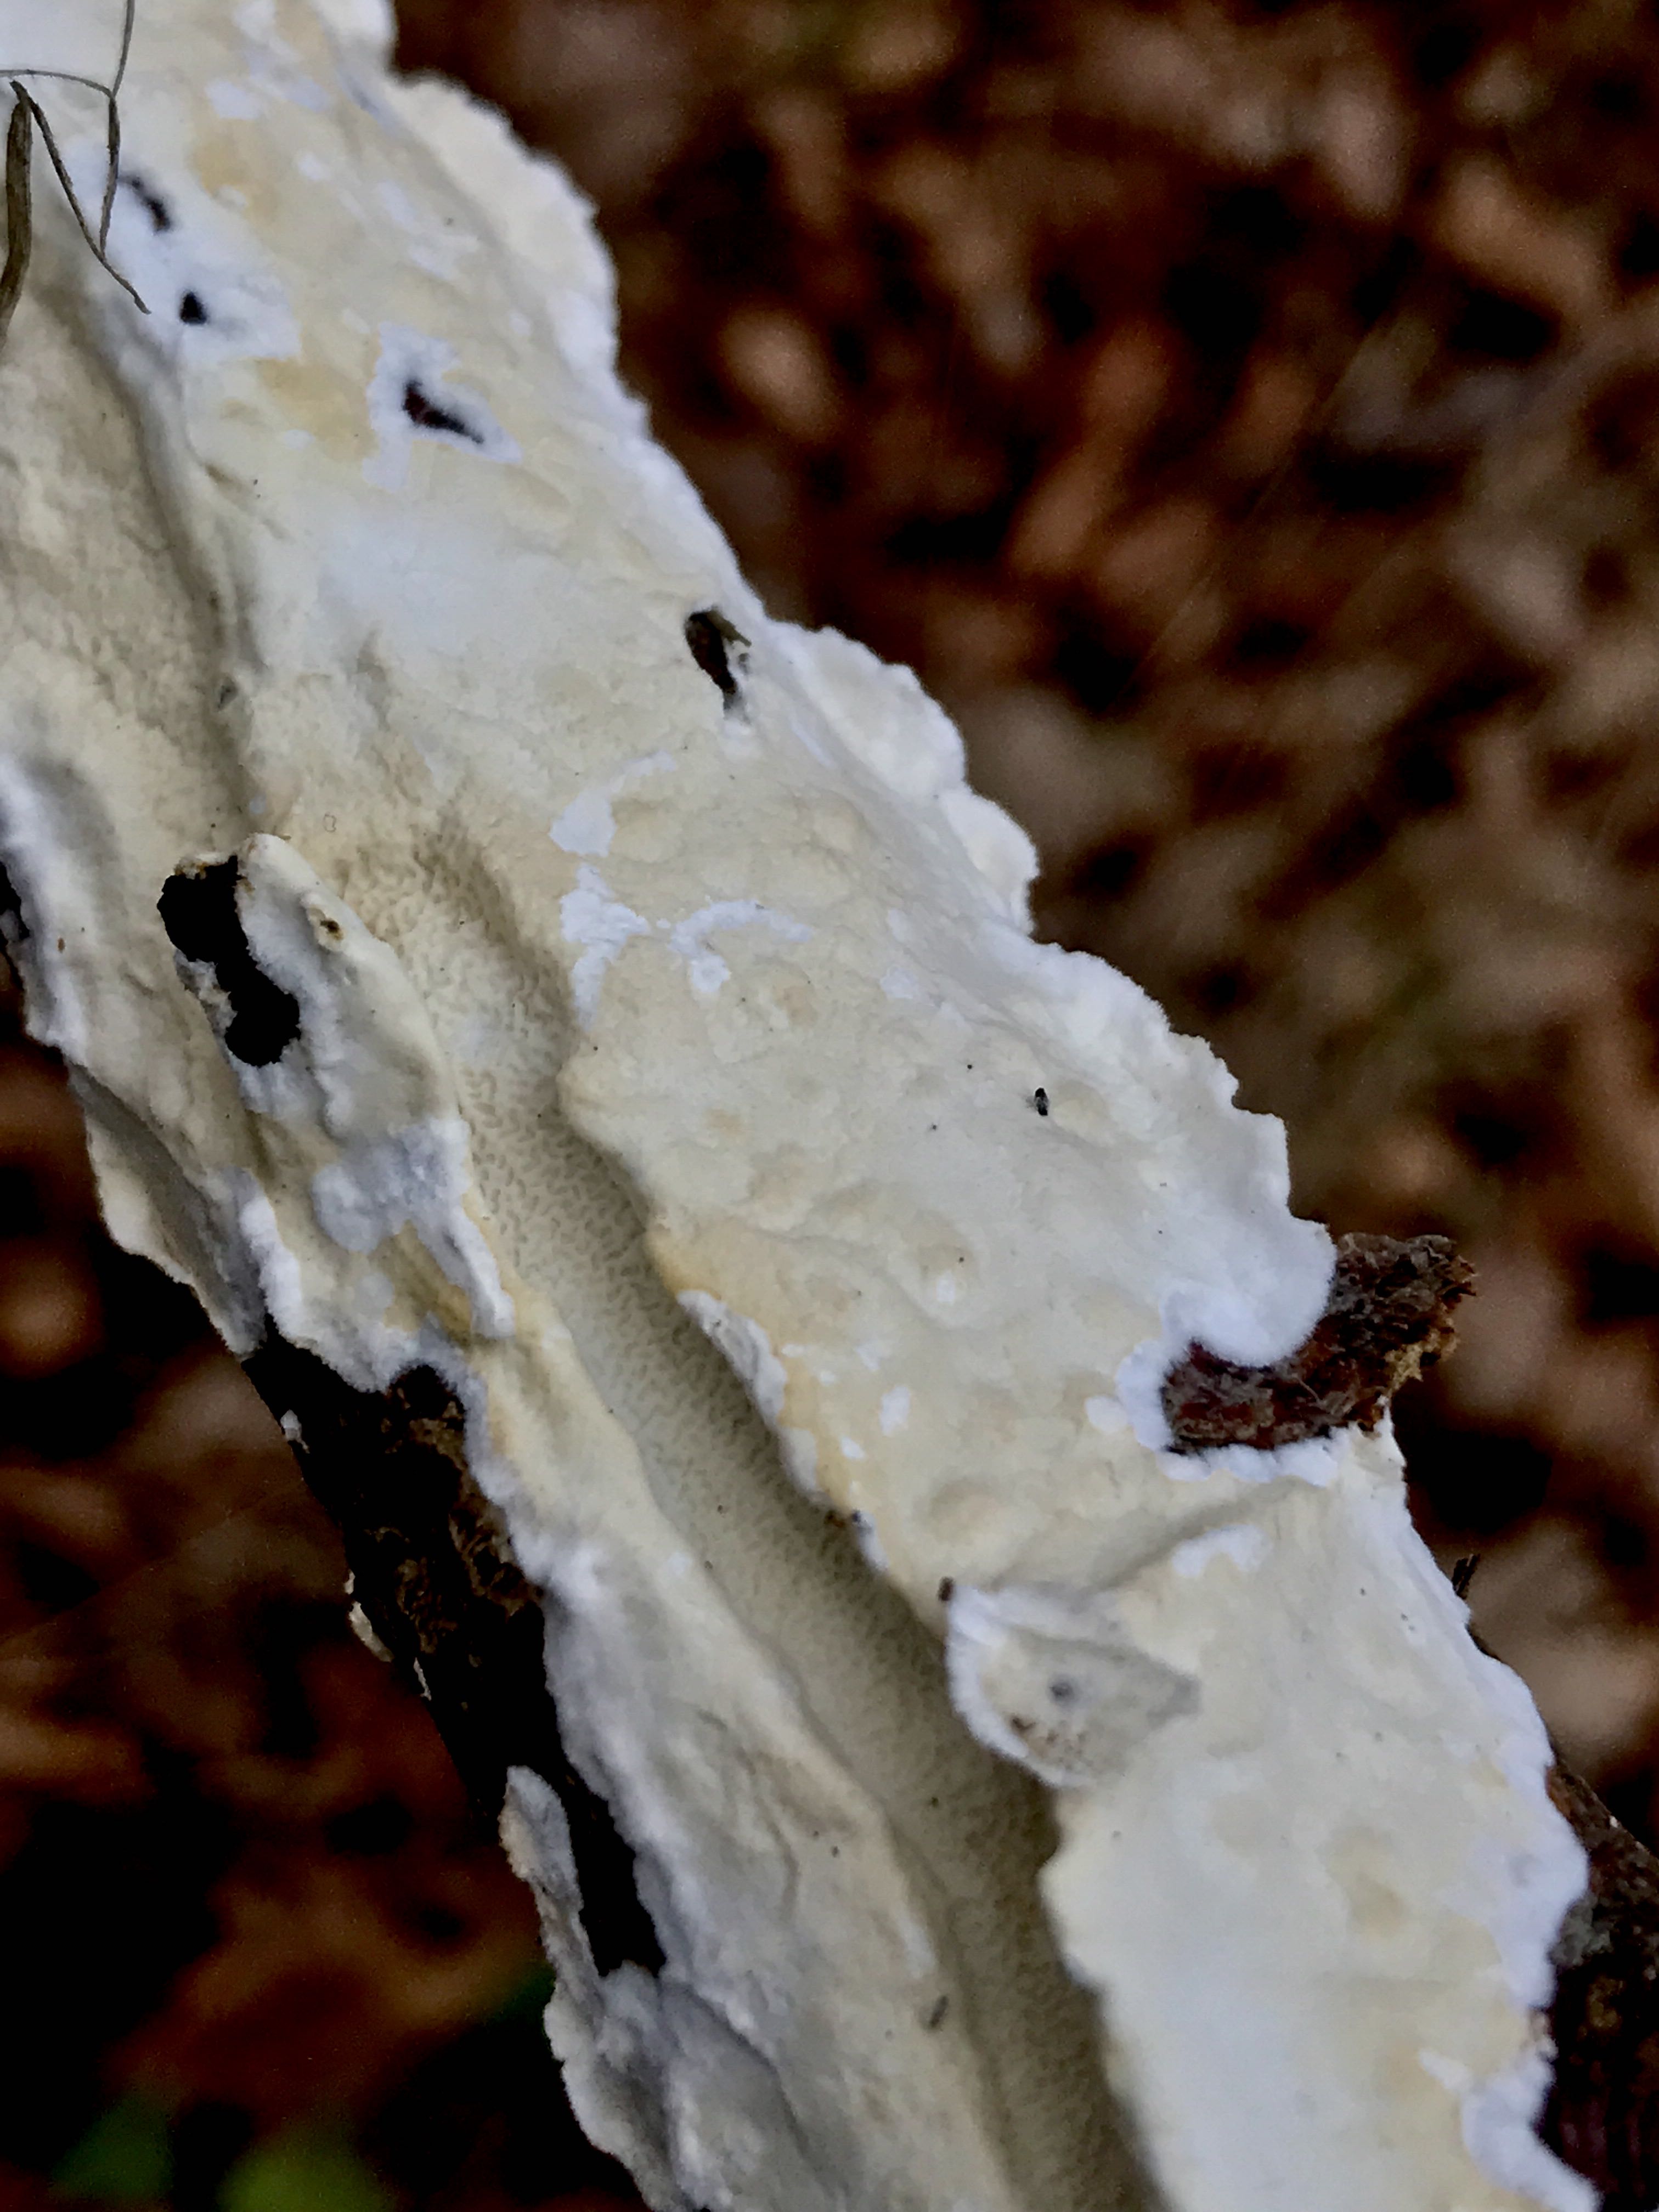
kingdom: Fungi
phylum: Basidiomycota
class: Agaricomycetes
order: Polyporales
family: Irpicaceae
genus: Byssomerulius
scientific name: Byssomerulius corium
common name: læder-åresvamp
